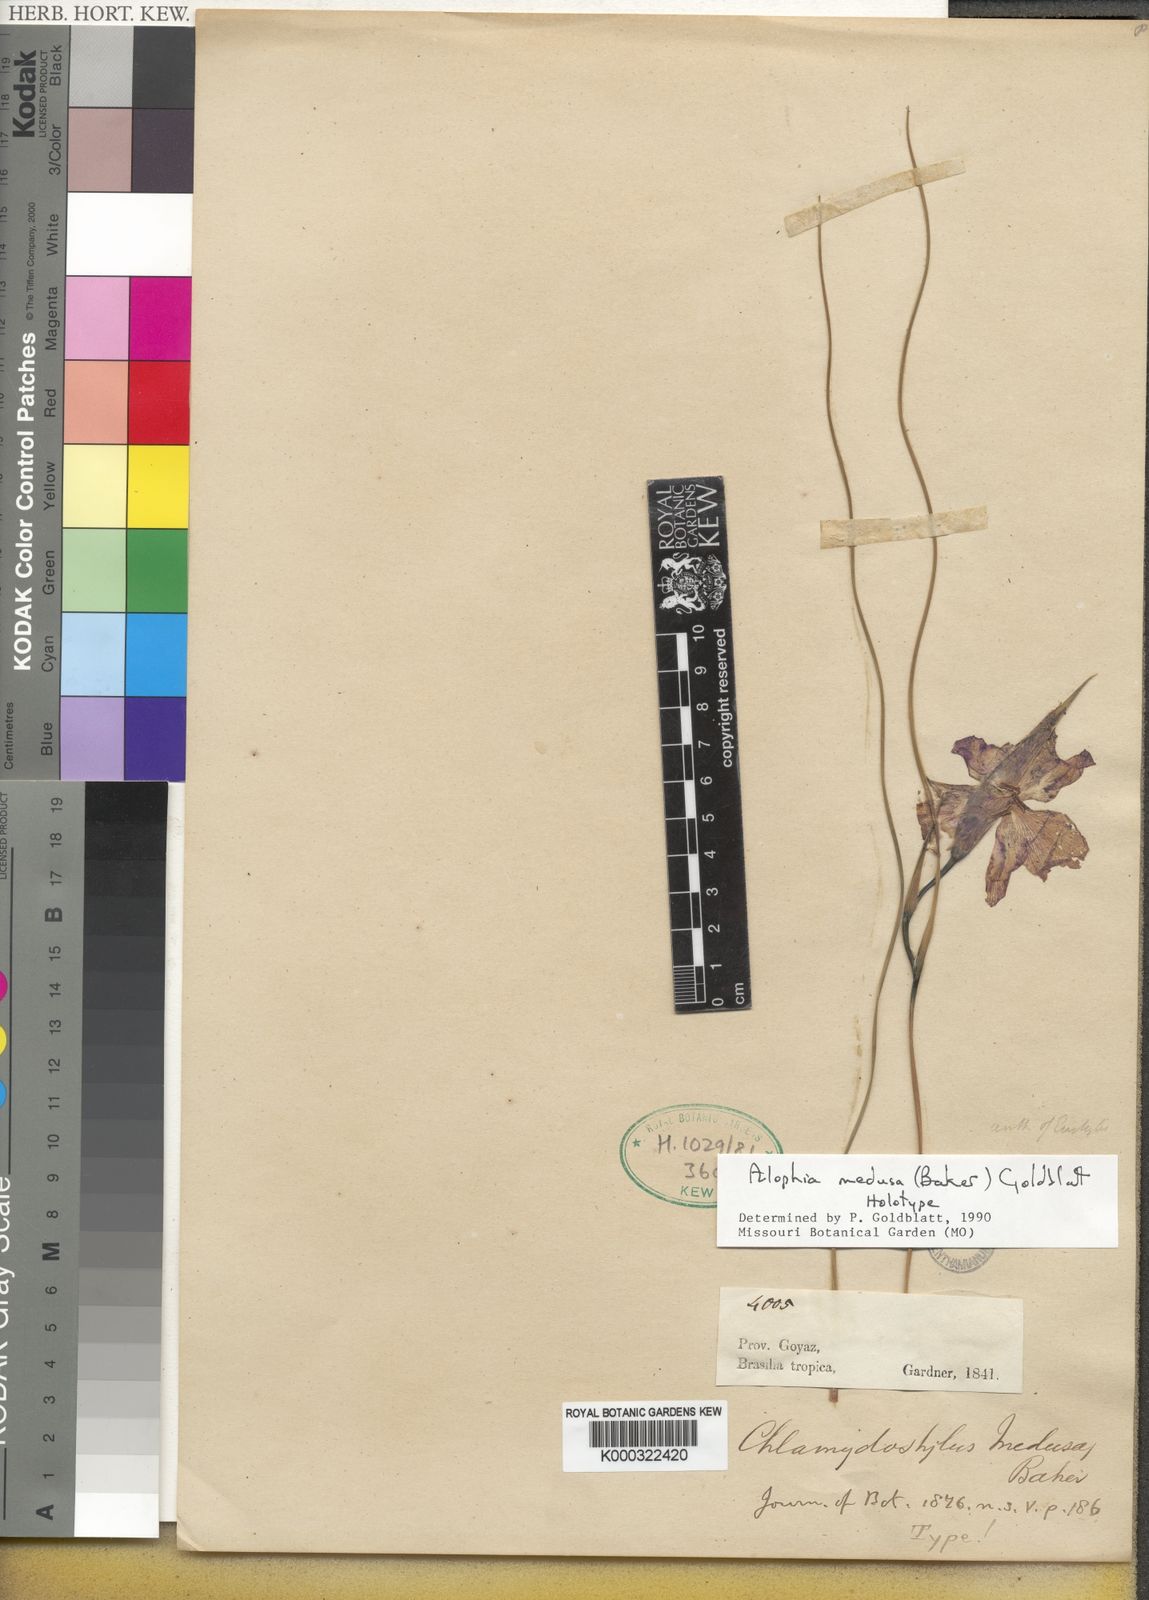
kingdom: Plantae
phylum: Tracheophyta
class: Liliopsida
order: Asparagales
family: Iridaceae
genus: Alophia
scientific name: Alophia medusa
